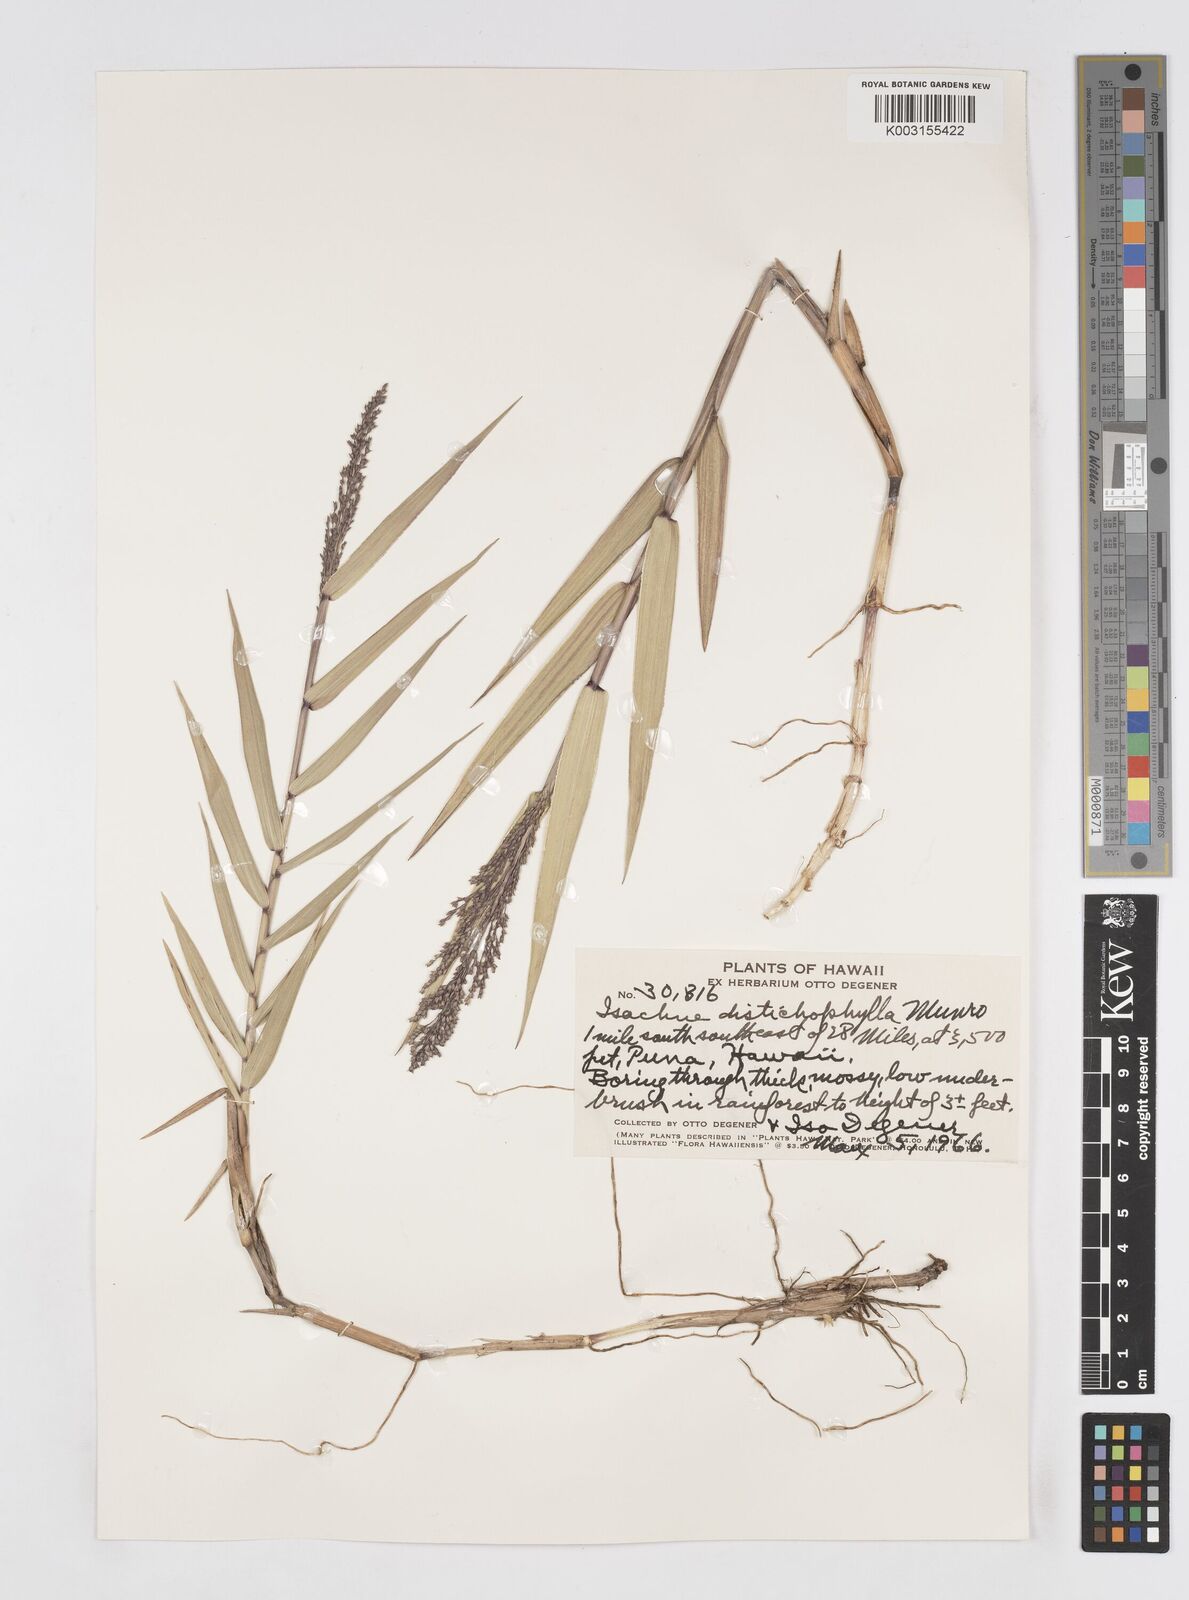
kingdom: Plantae
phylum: Tracheophyta
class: Liliopsida
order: Poales
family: Poaceae
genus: Isachne
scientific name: Isachne distichophylla
